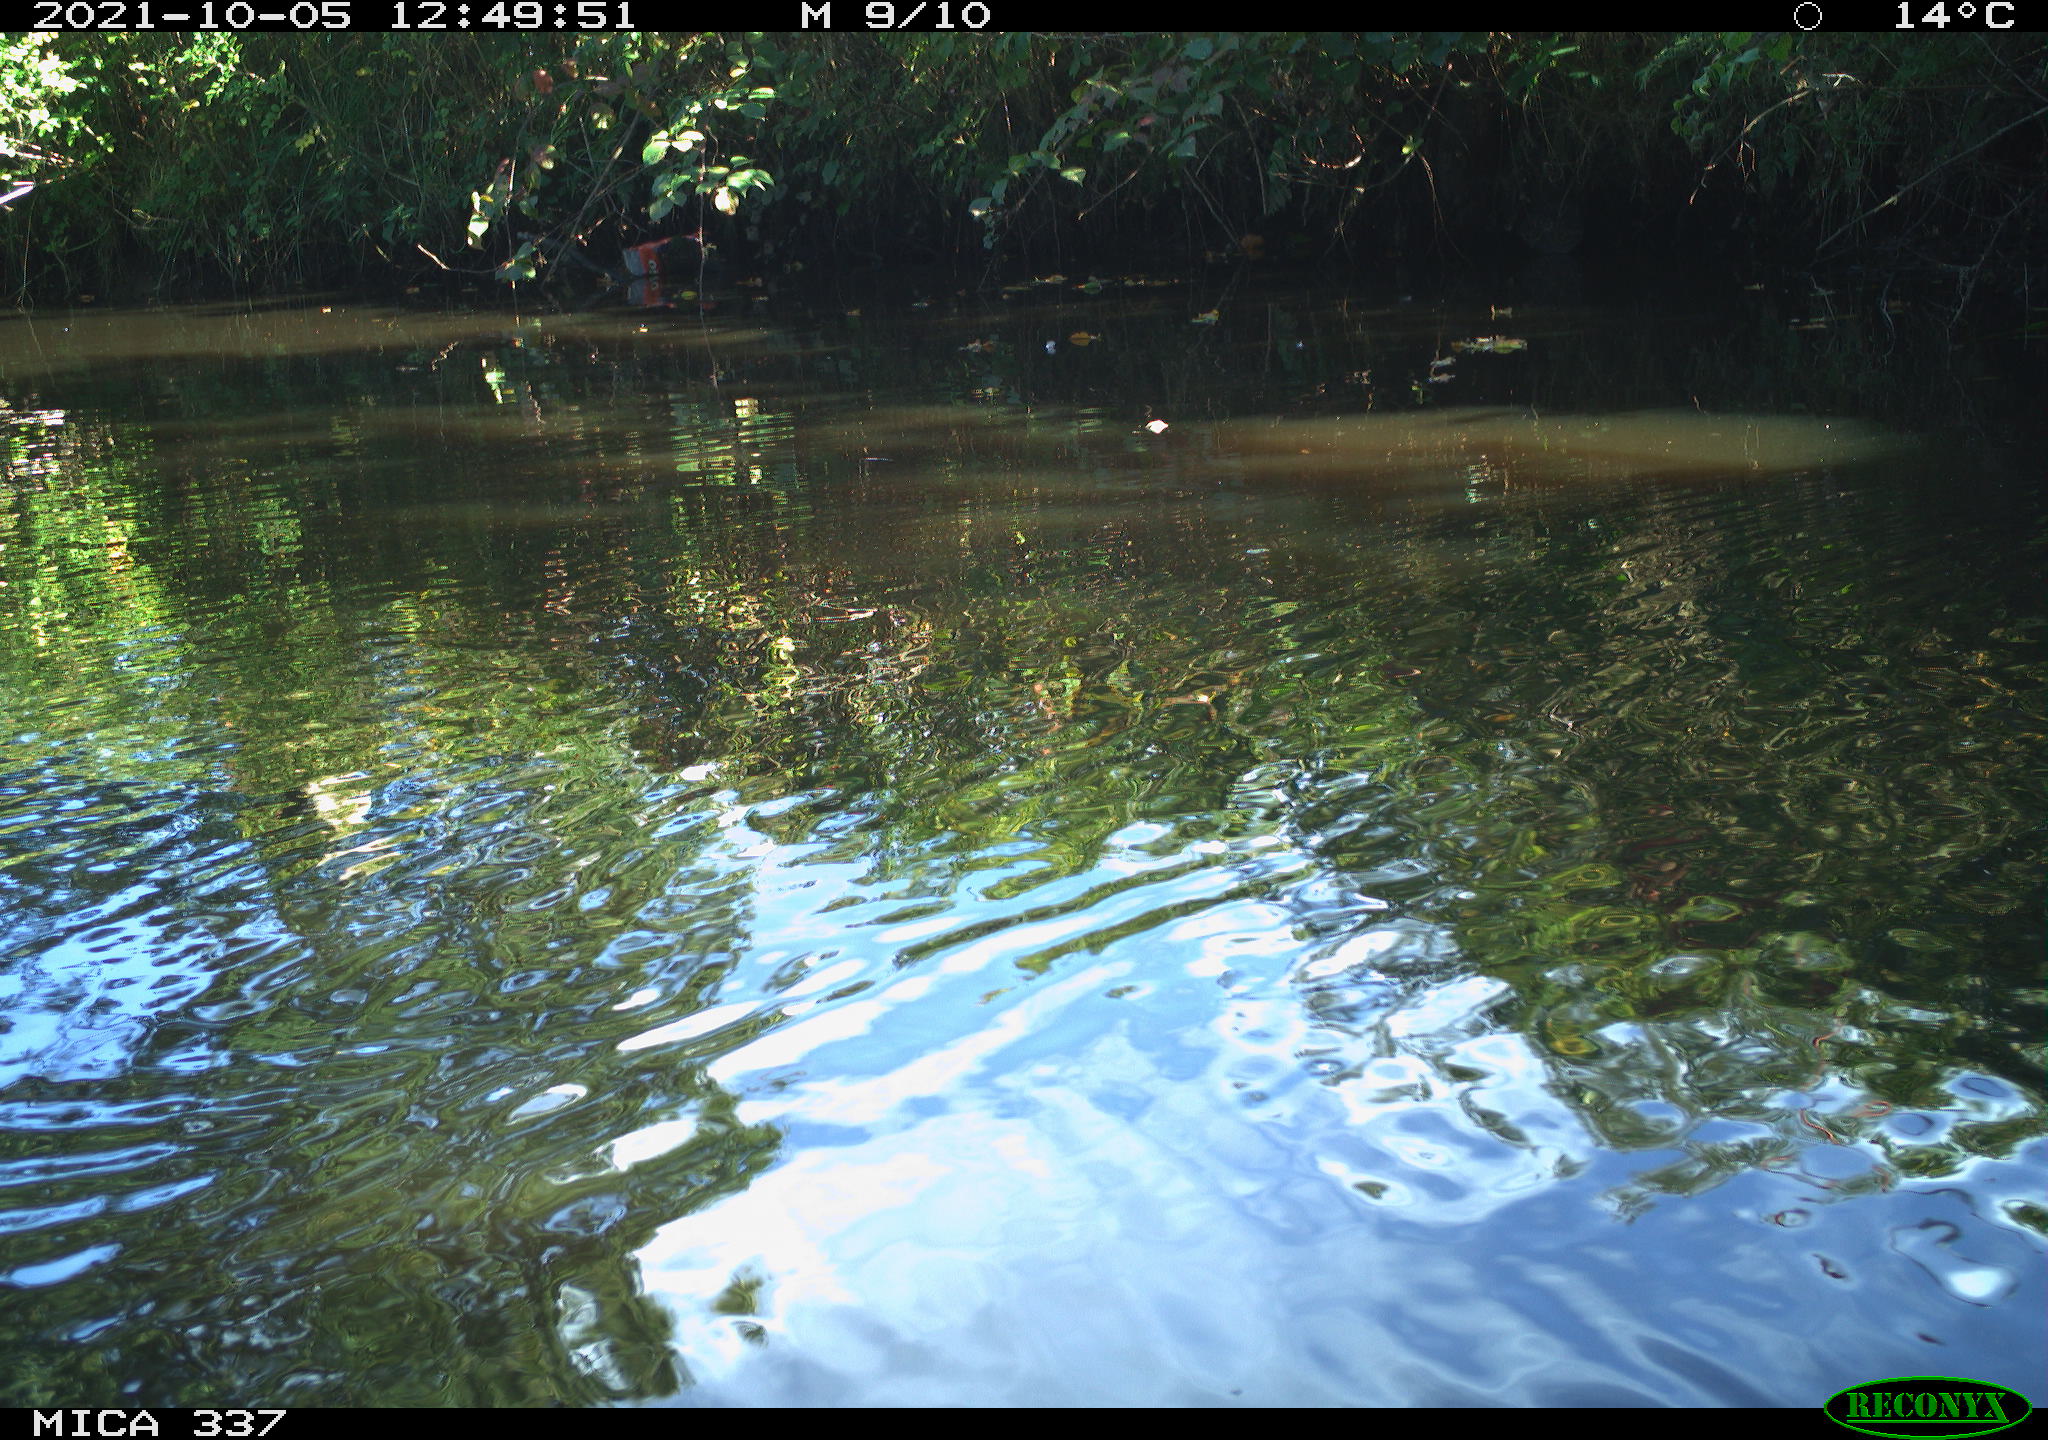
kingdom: Animalia
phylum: Chordata
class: Aves
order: Gruiformes
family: Rallidae
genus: Gallinula
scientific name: Gallinula chloropus
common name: Common moorhen
